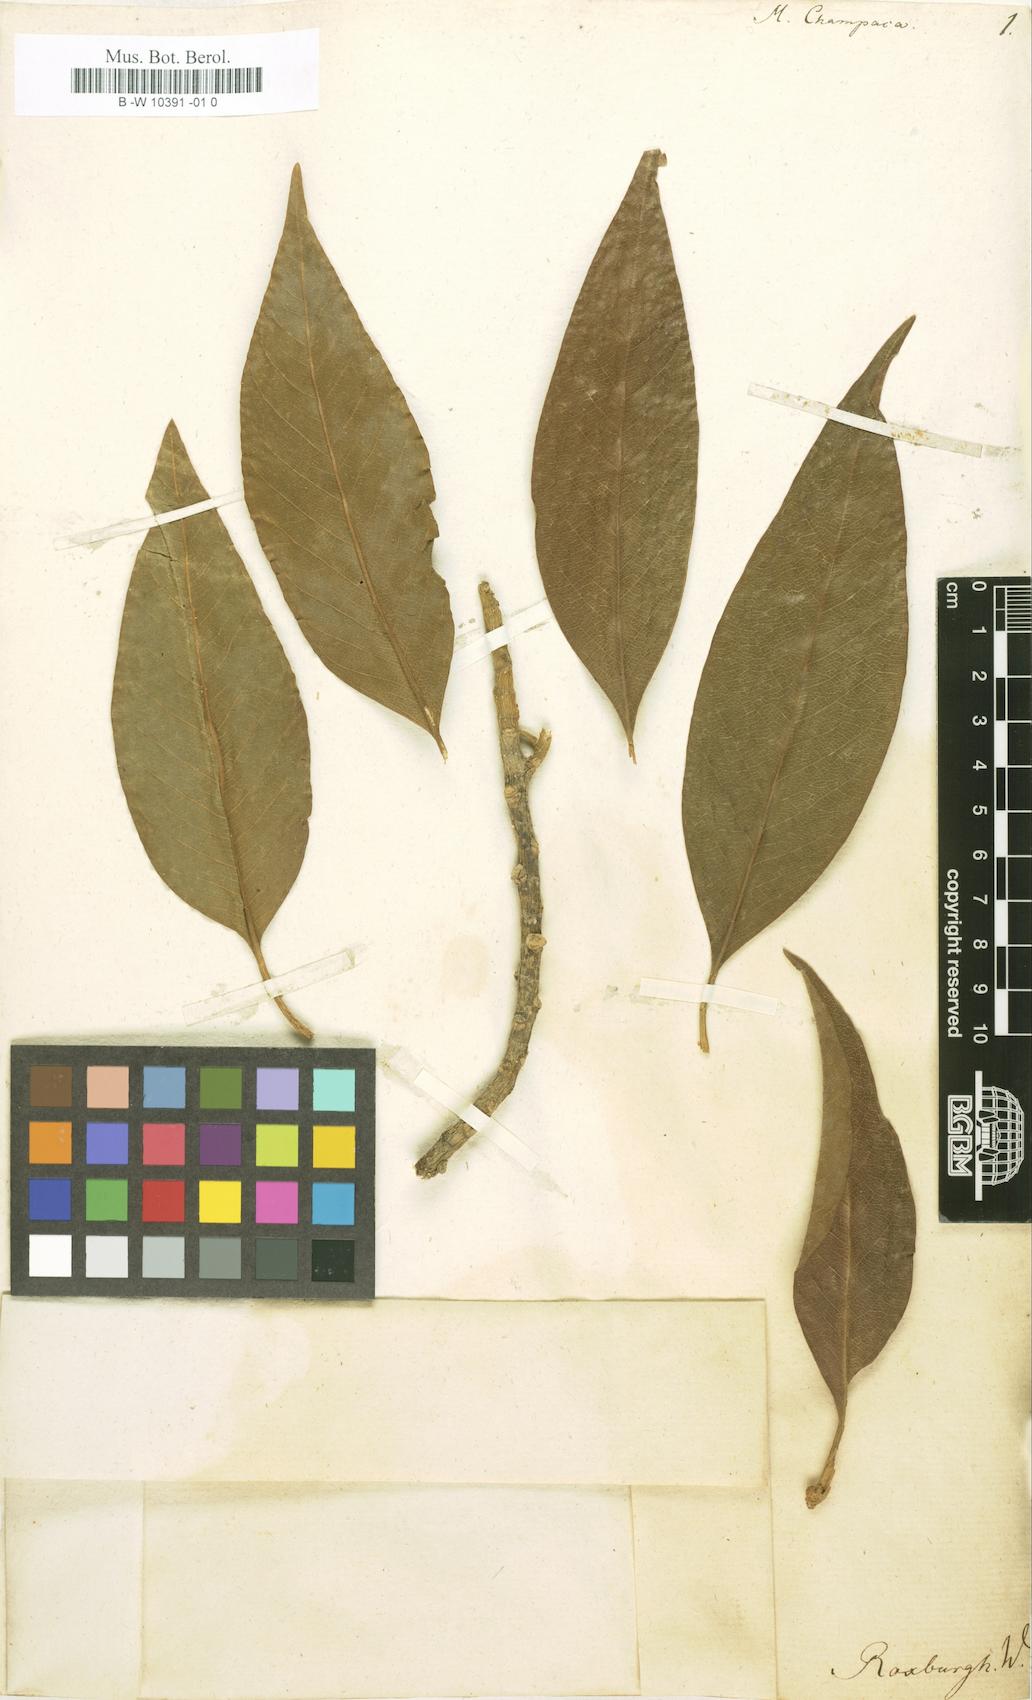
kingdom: Plantae
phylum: Tracheophyta
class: Magnoliopsida
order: Magnoliales
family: Magnoliaceae
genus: Magnolia
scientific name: Magnolia champaca
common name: Champak
